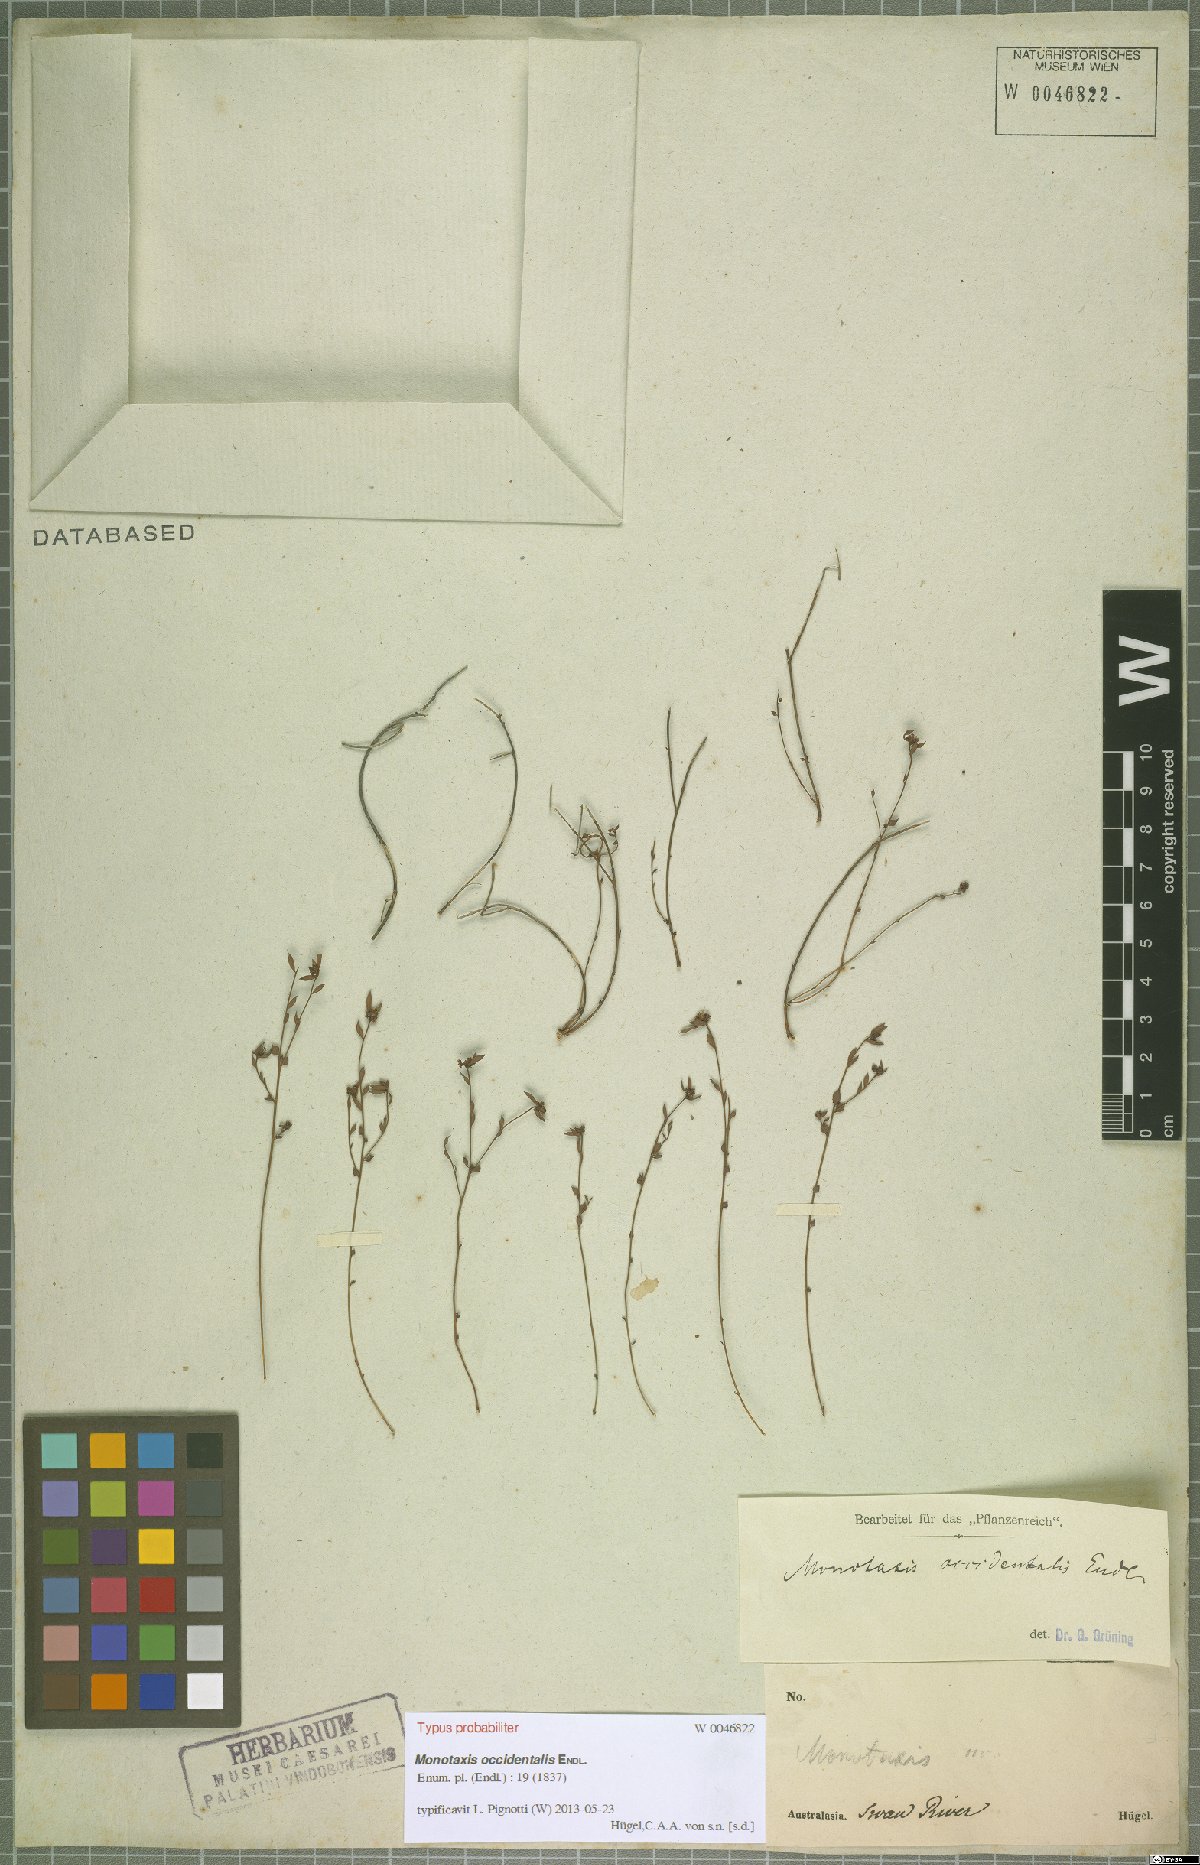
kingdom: Plantae
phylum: Tracheophyta
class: Magnoliopsida
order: Malpighiales
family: Euphorbiaceae
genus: Monotaxis
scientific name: Monotaxis occidentalis
